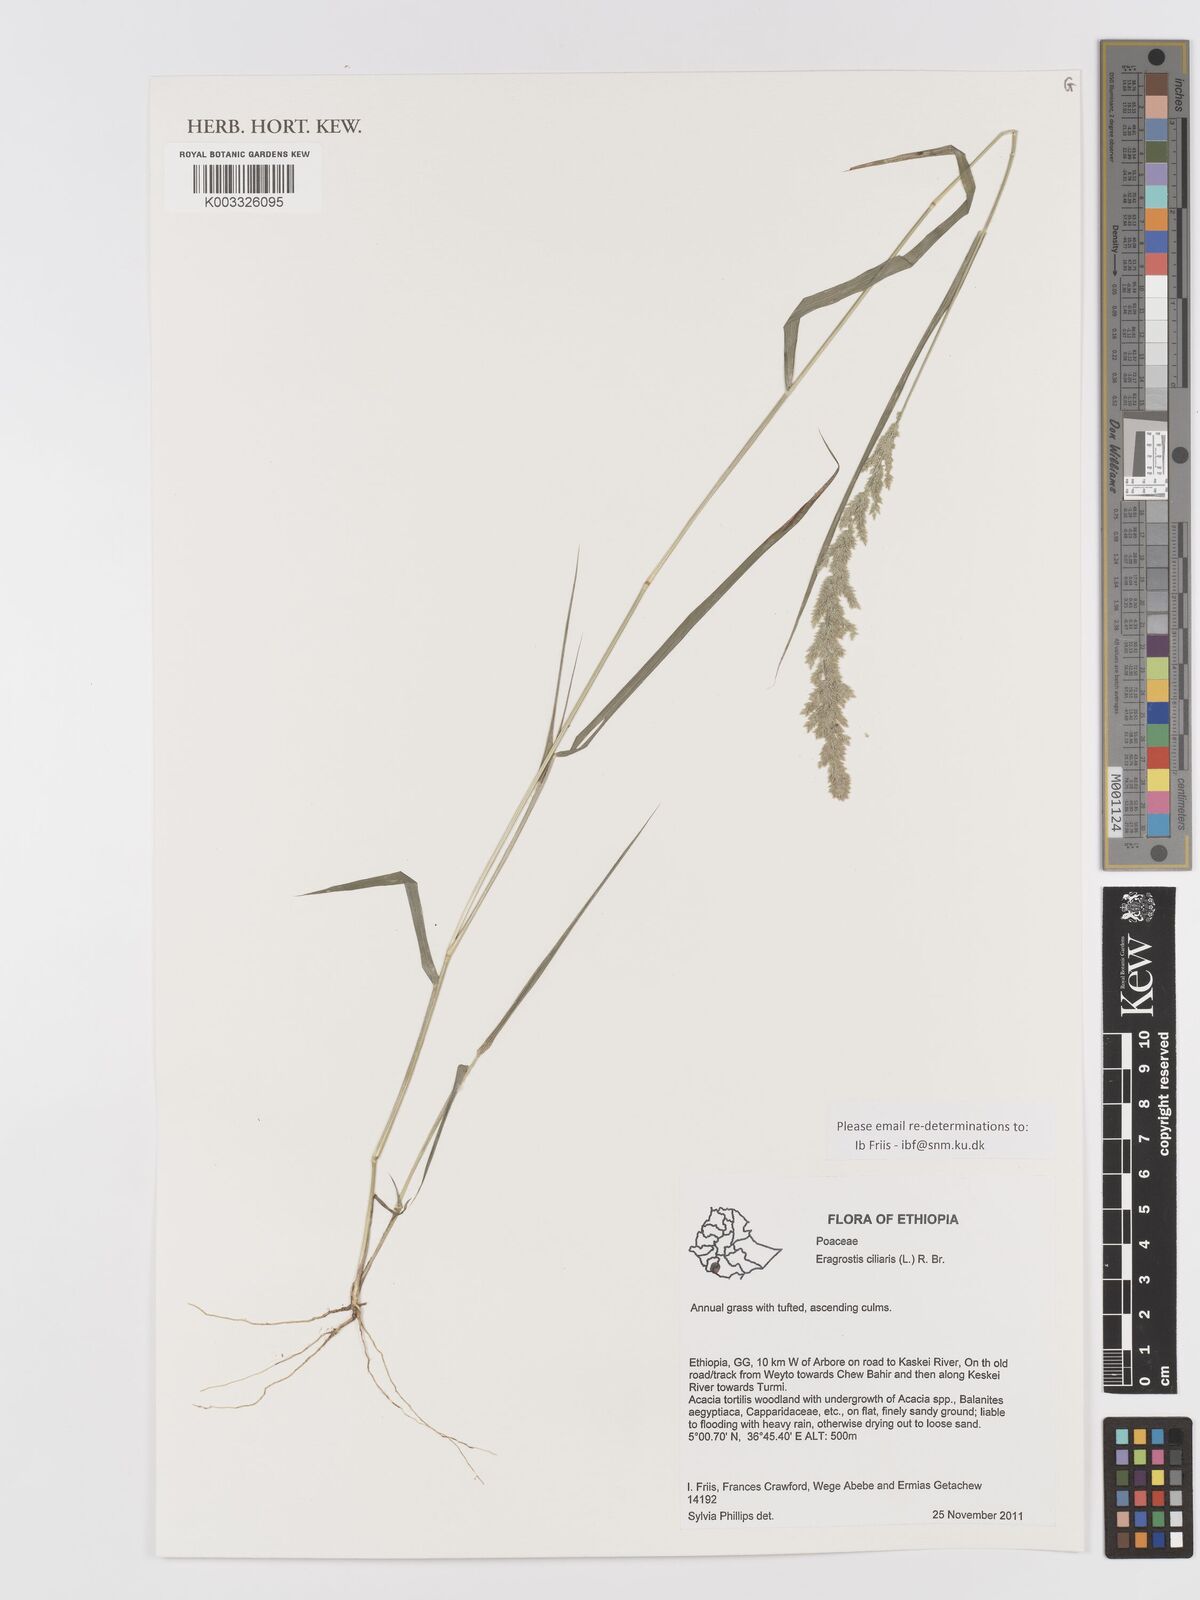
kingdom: Plantae
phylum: Tracheophyta
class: Liliopsida
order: Poales
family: Poaceae
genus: Eragrostis
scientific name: Eragrostis ciliaris
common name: Gophertail lovegrass
